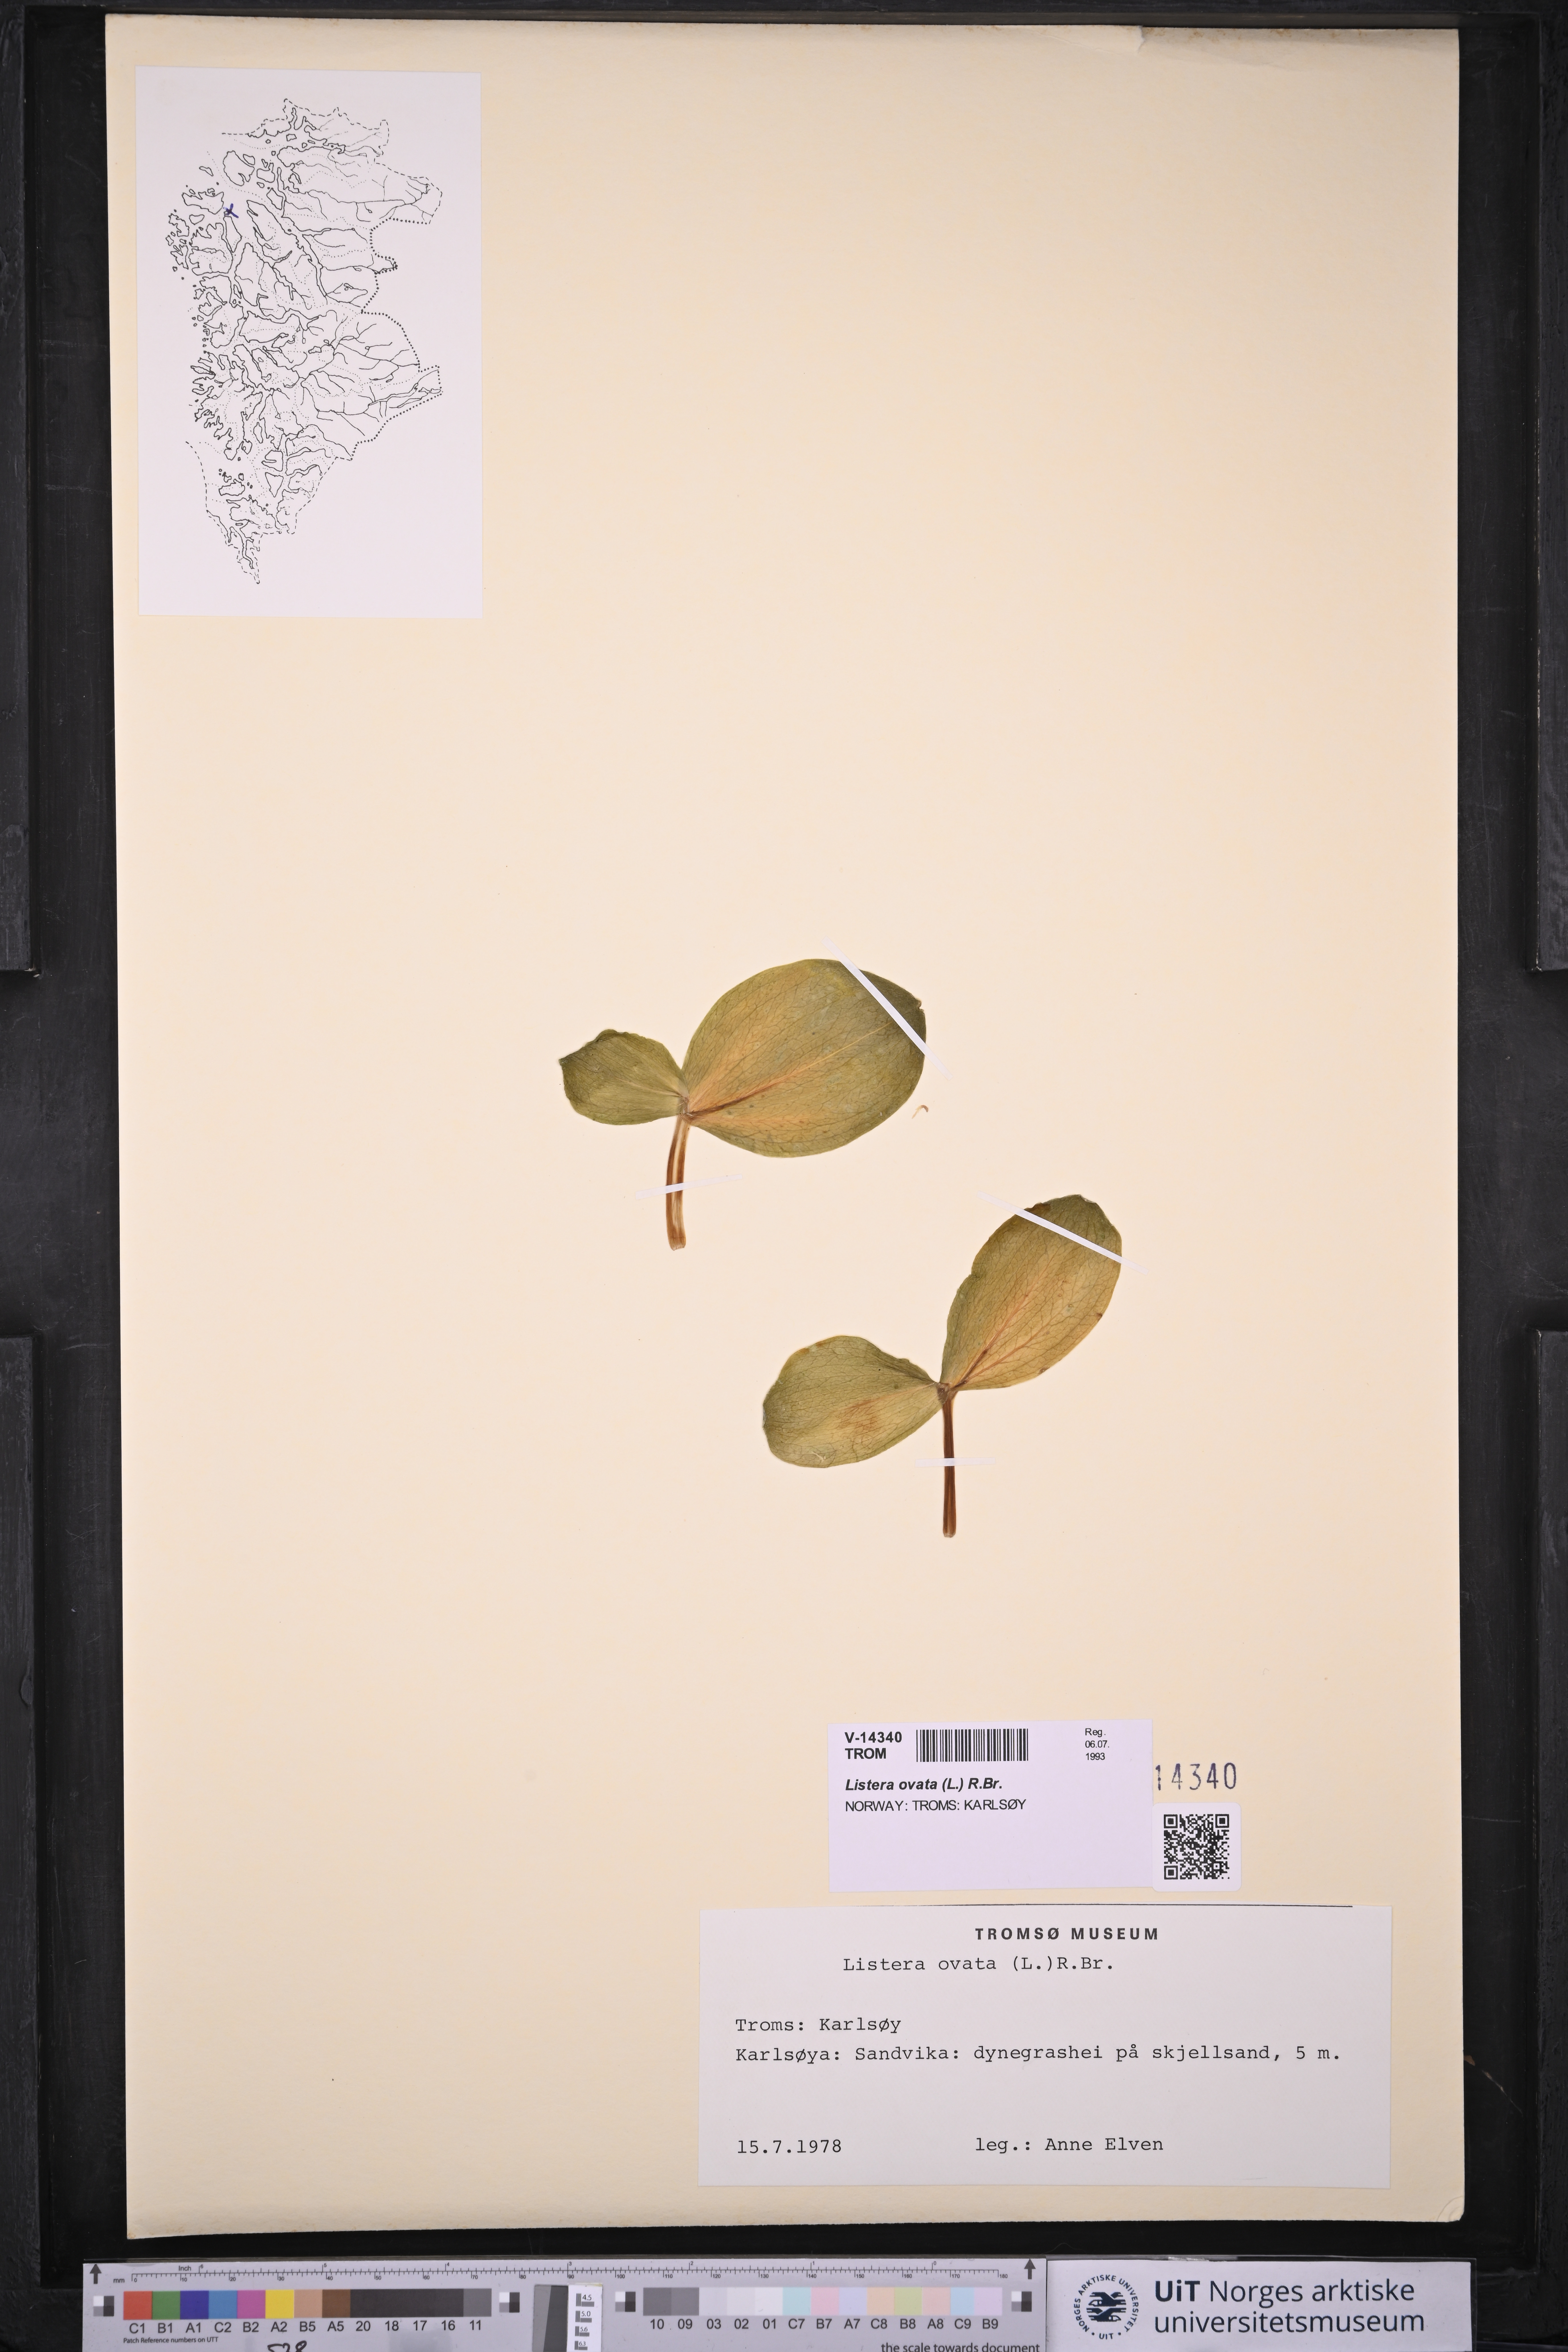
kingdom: Plantae
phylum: Tracheophyta
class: Liliopsida
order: Asparagales
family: Orchidaceae
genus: Neottia
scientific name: Neottia ovata
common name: Common twayblade
